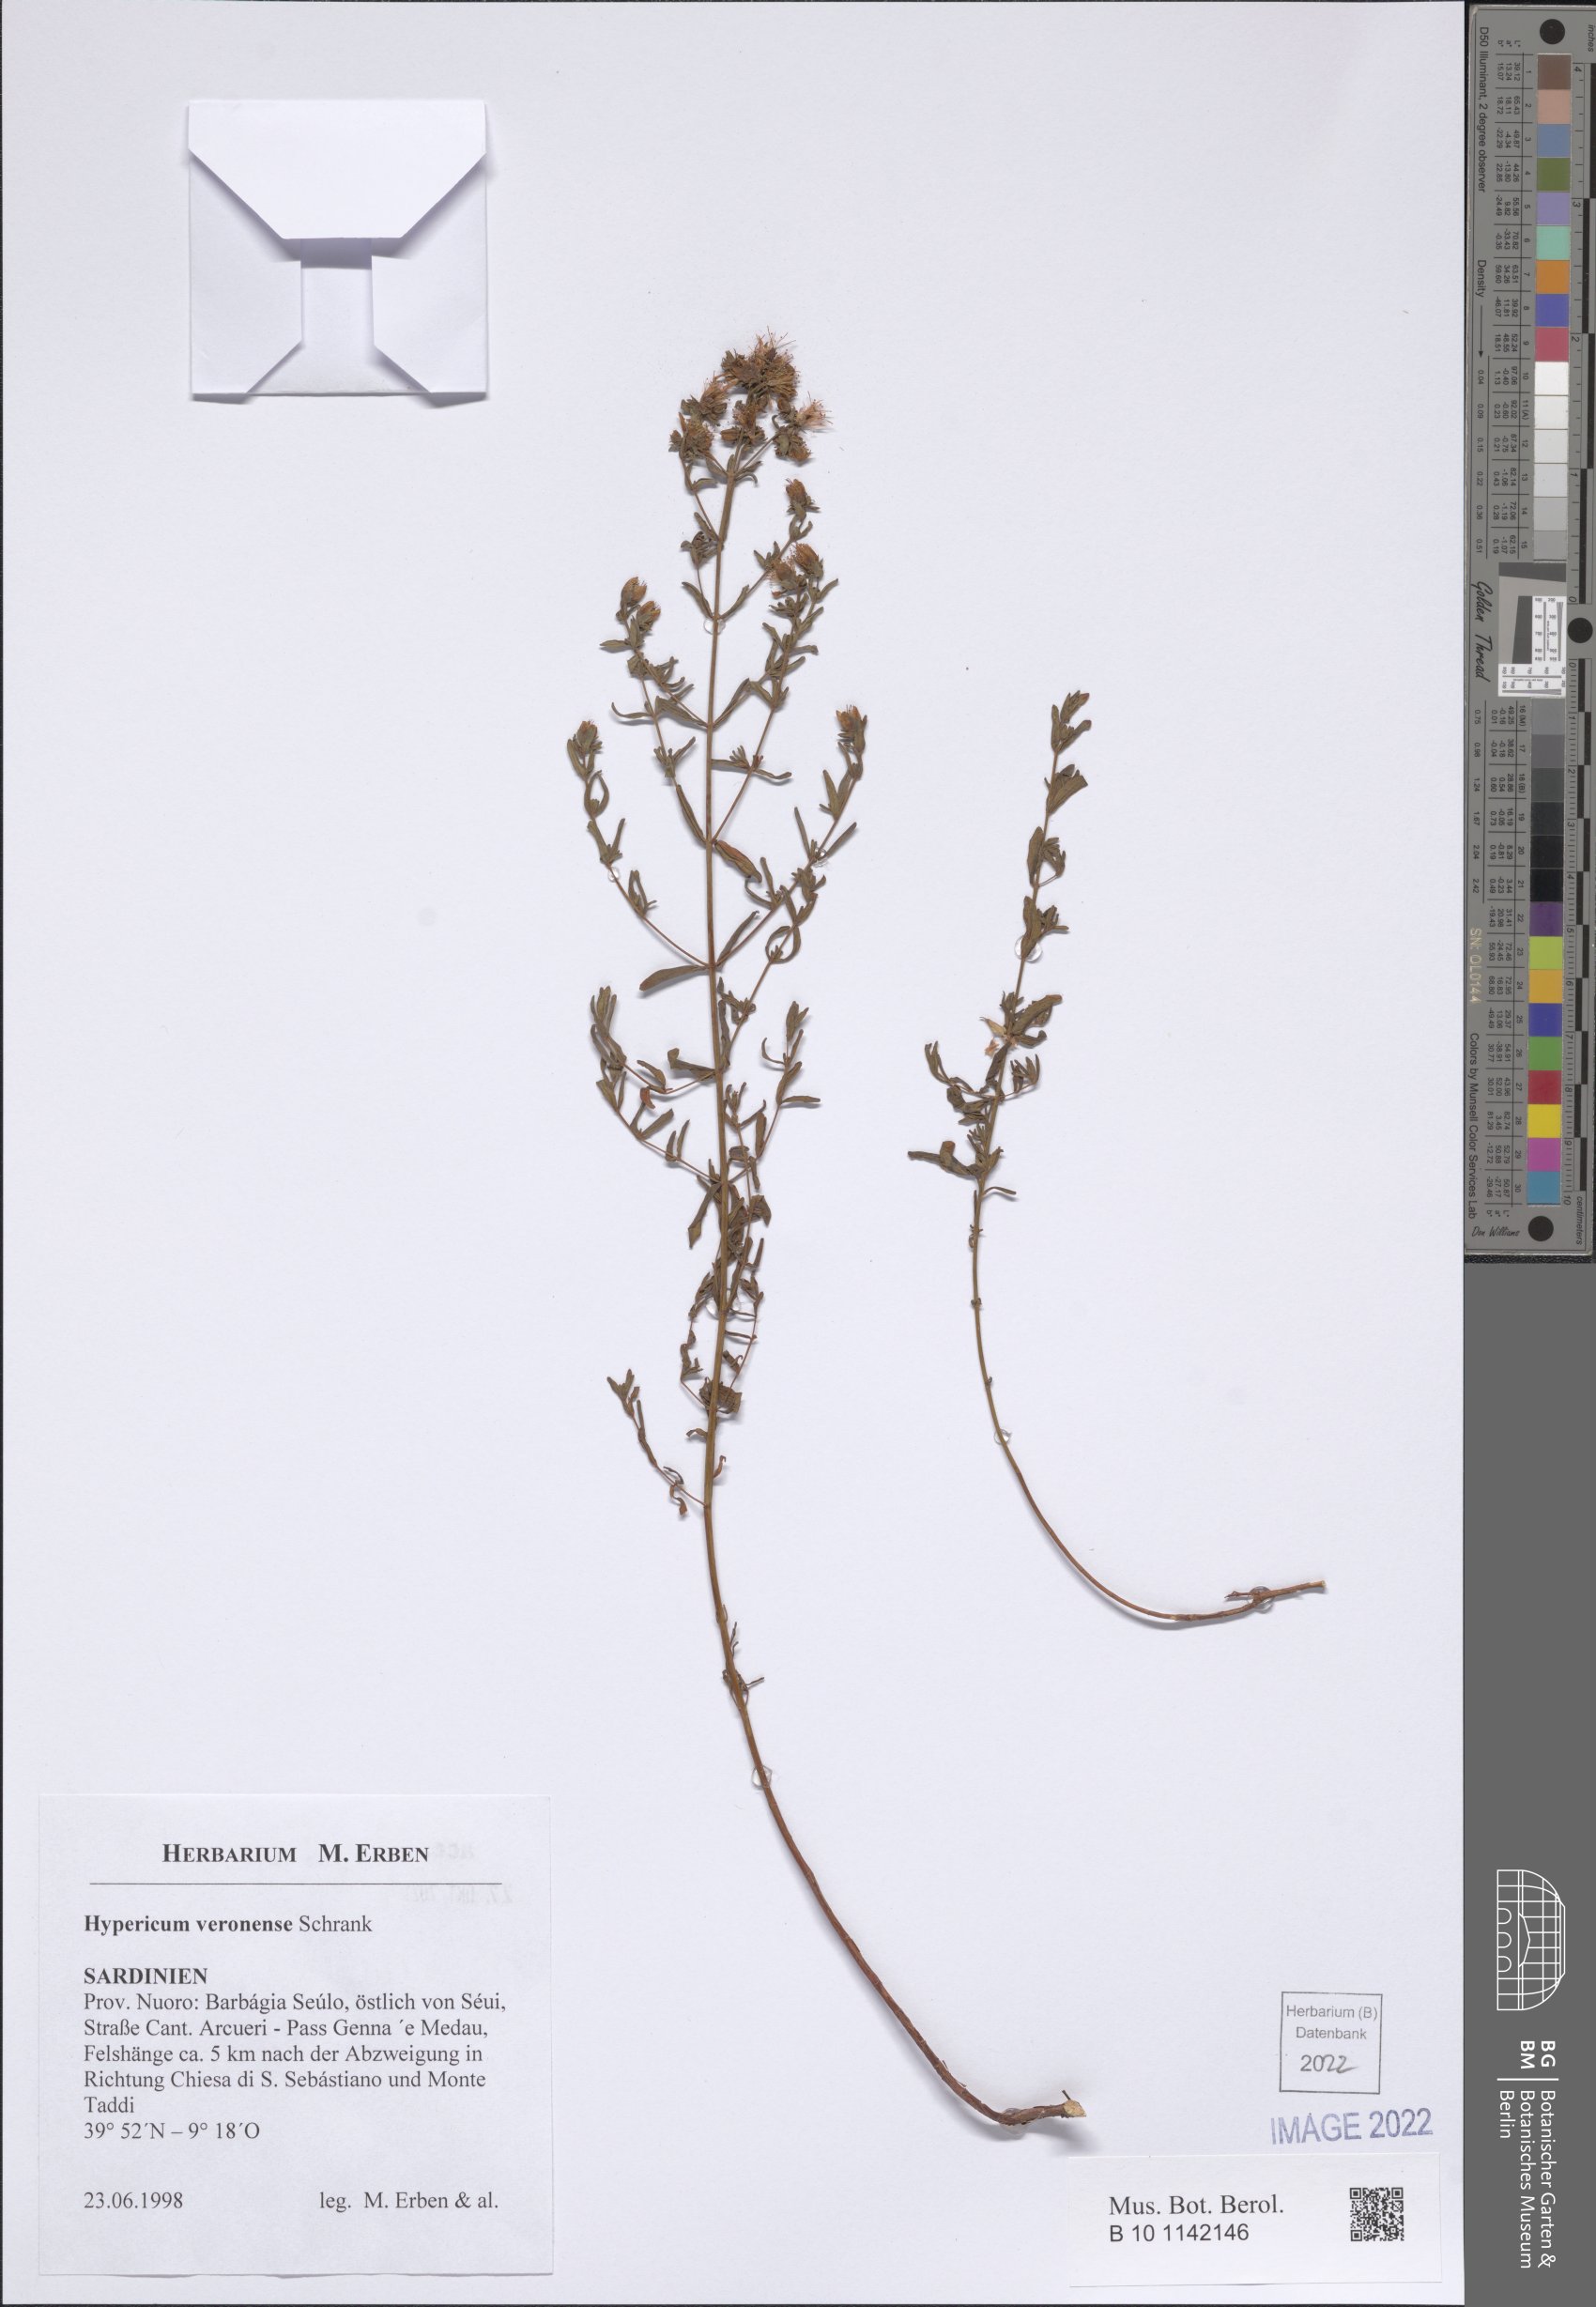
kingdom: Plantae
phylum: Tracheophyta
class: Magnoliopsida
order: Malpighiales
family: Hypericaceae
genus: Hypericum
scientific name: Hypericum veronense
